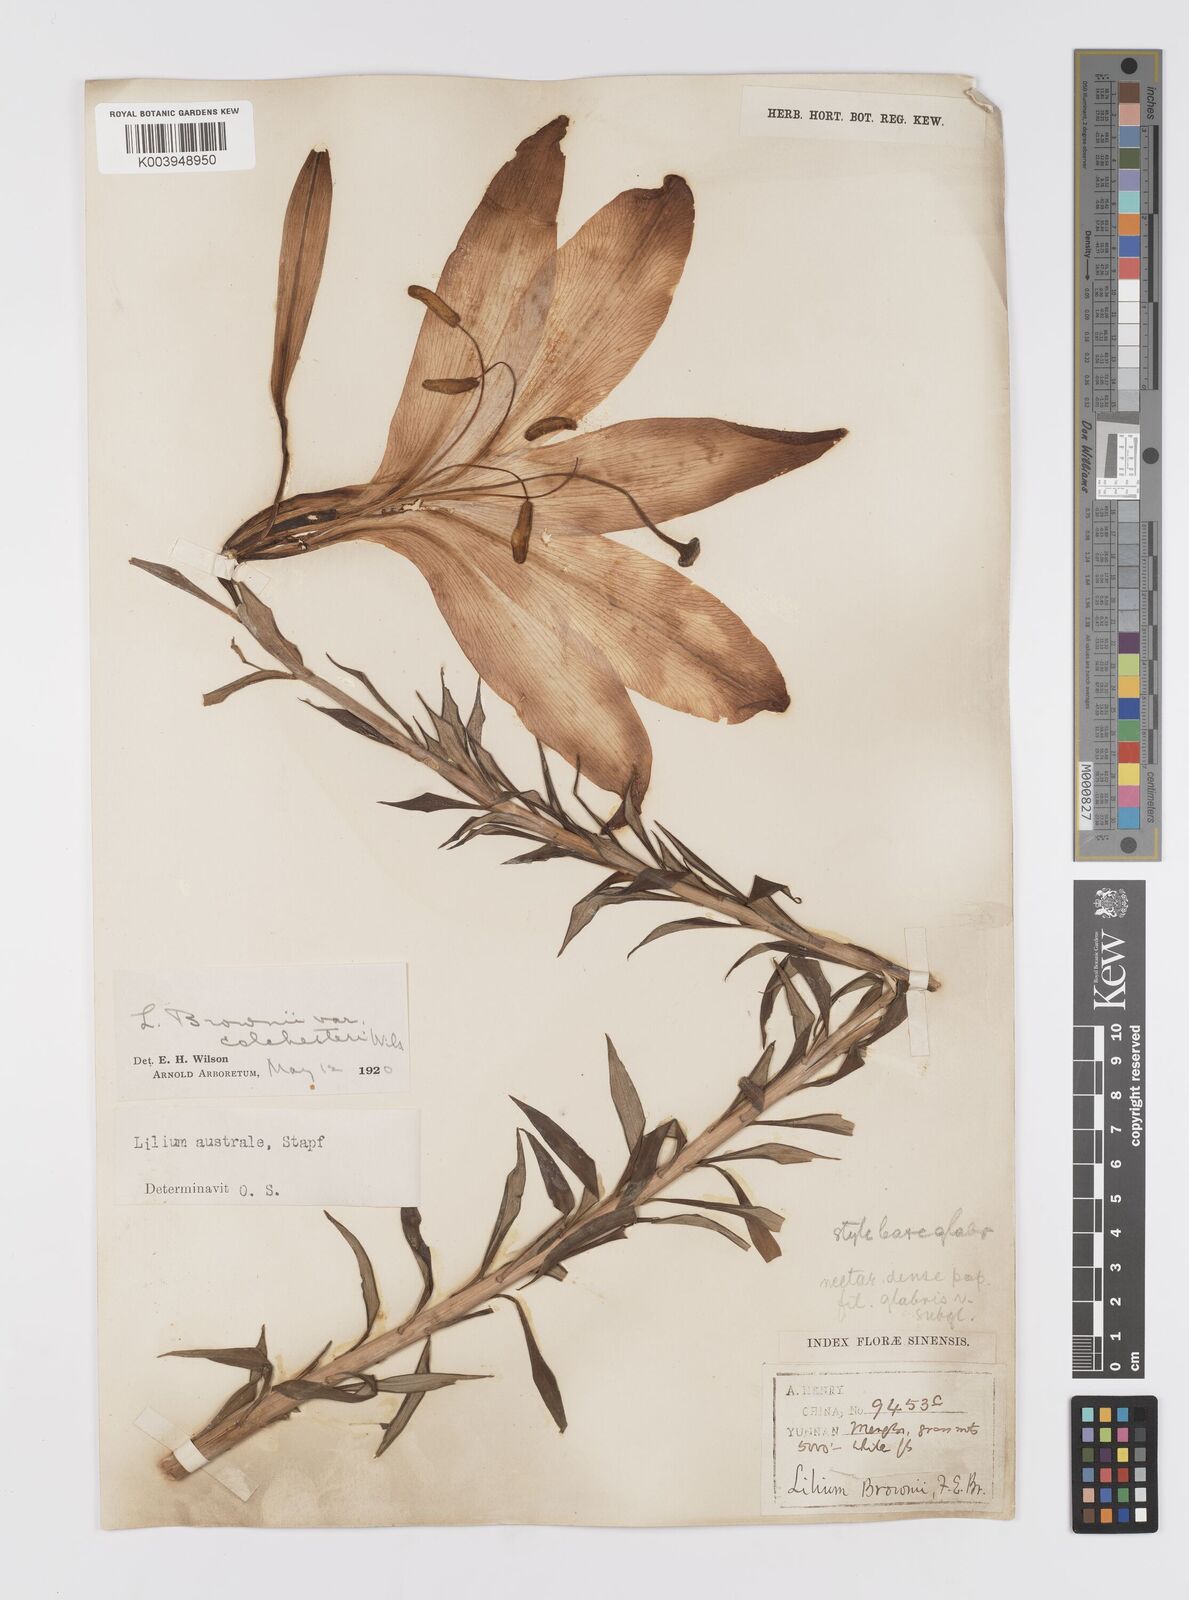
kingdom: Plantae
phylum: Tracheophyta
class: Liliopsida
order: Liliales
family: Liliaceae
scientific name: Liliaceae
